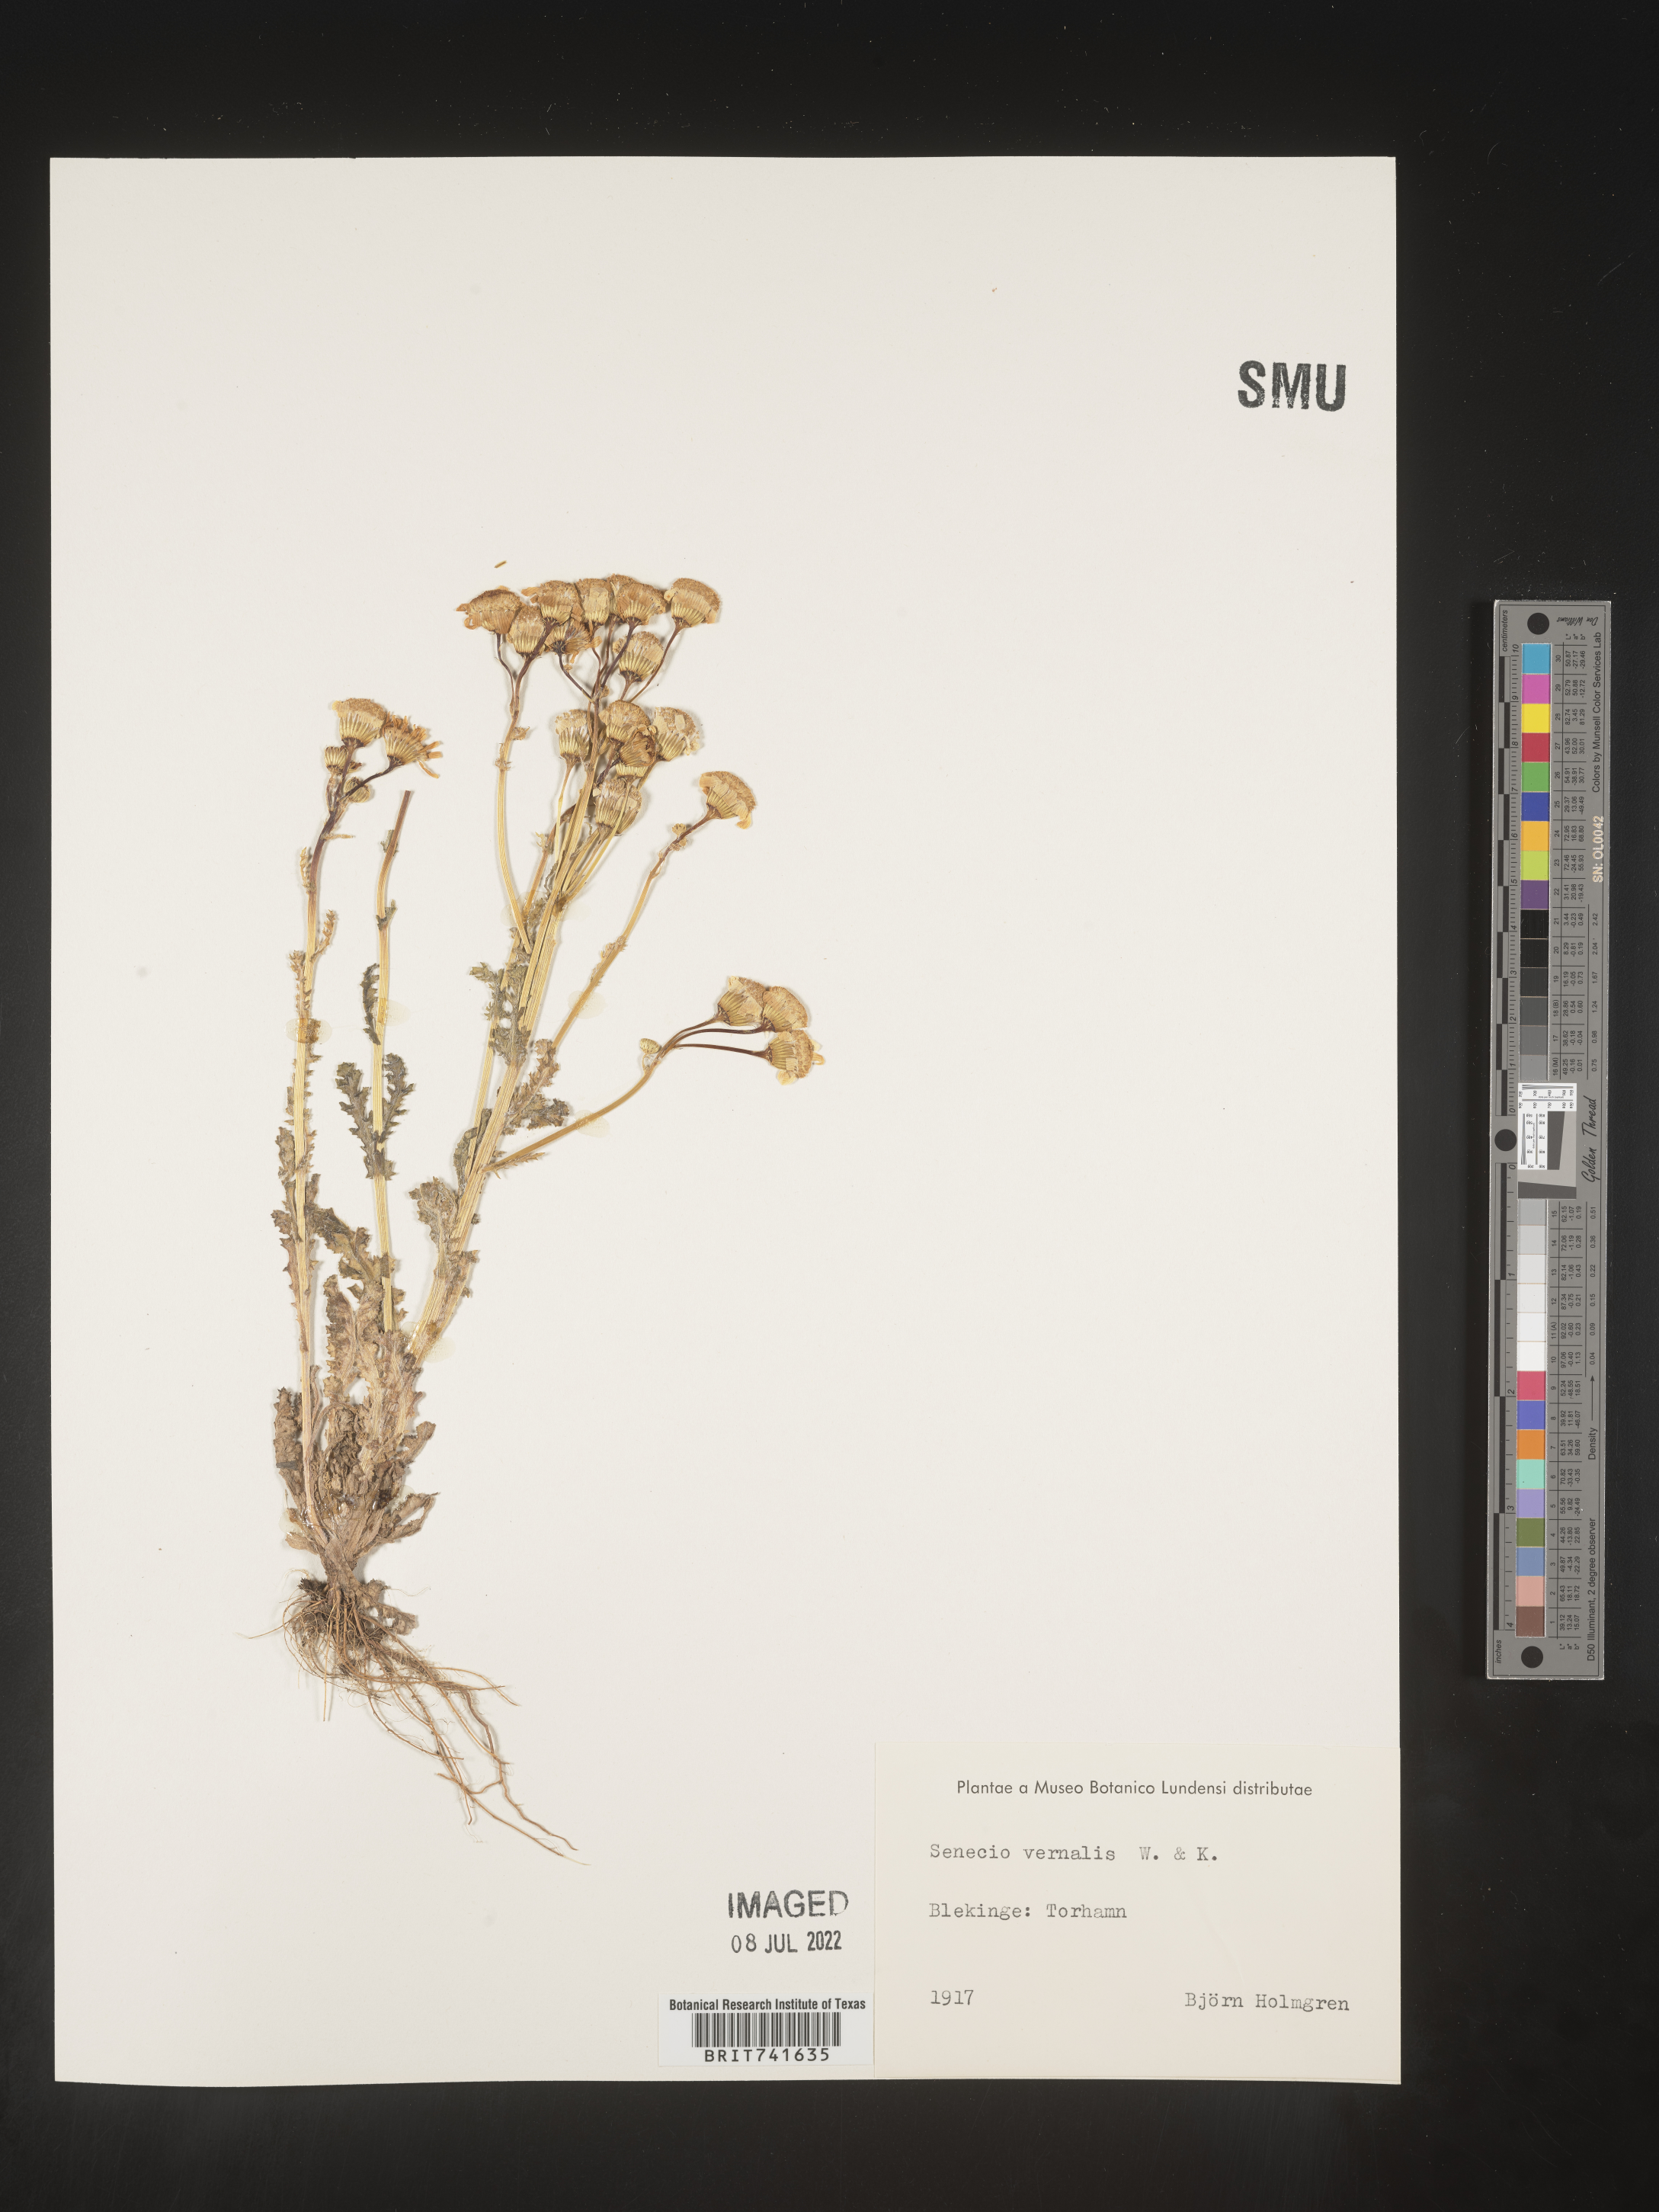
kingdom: Plantae
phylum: Tracheophyta
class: Magnoliopsida
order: Asterales
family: Asteraceae
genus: Senecio
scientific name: Senecio vernalis
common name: Eastern groundsel
